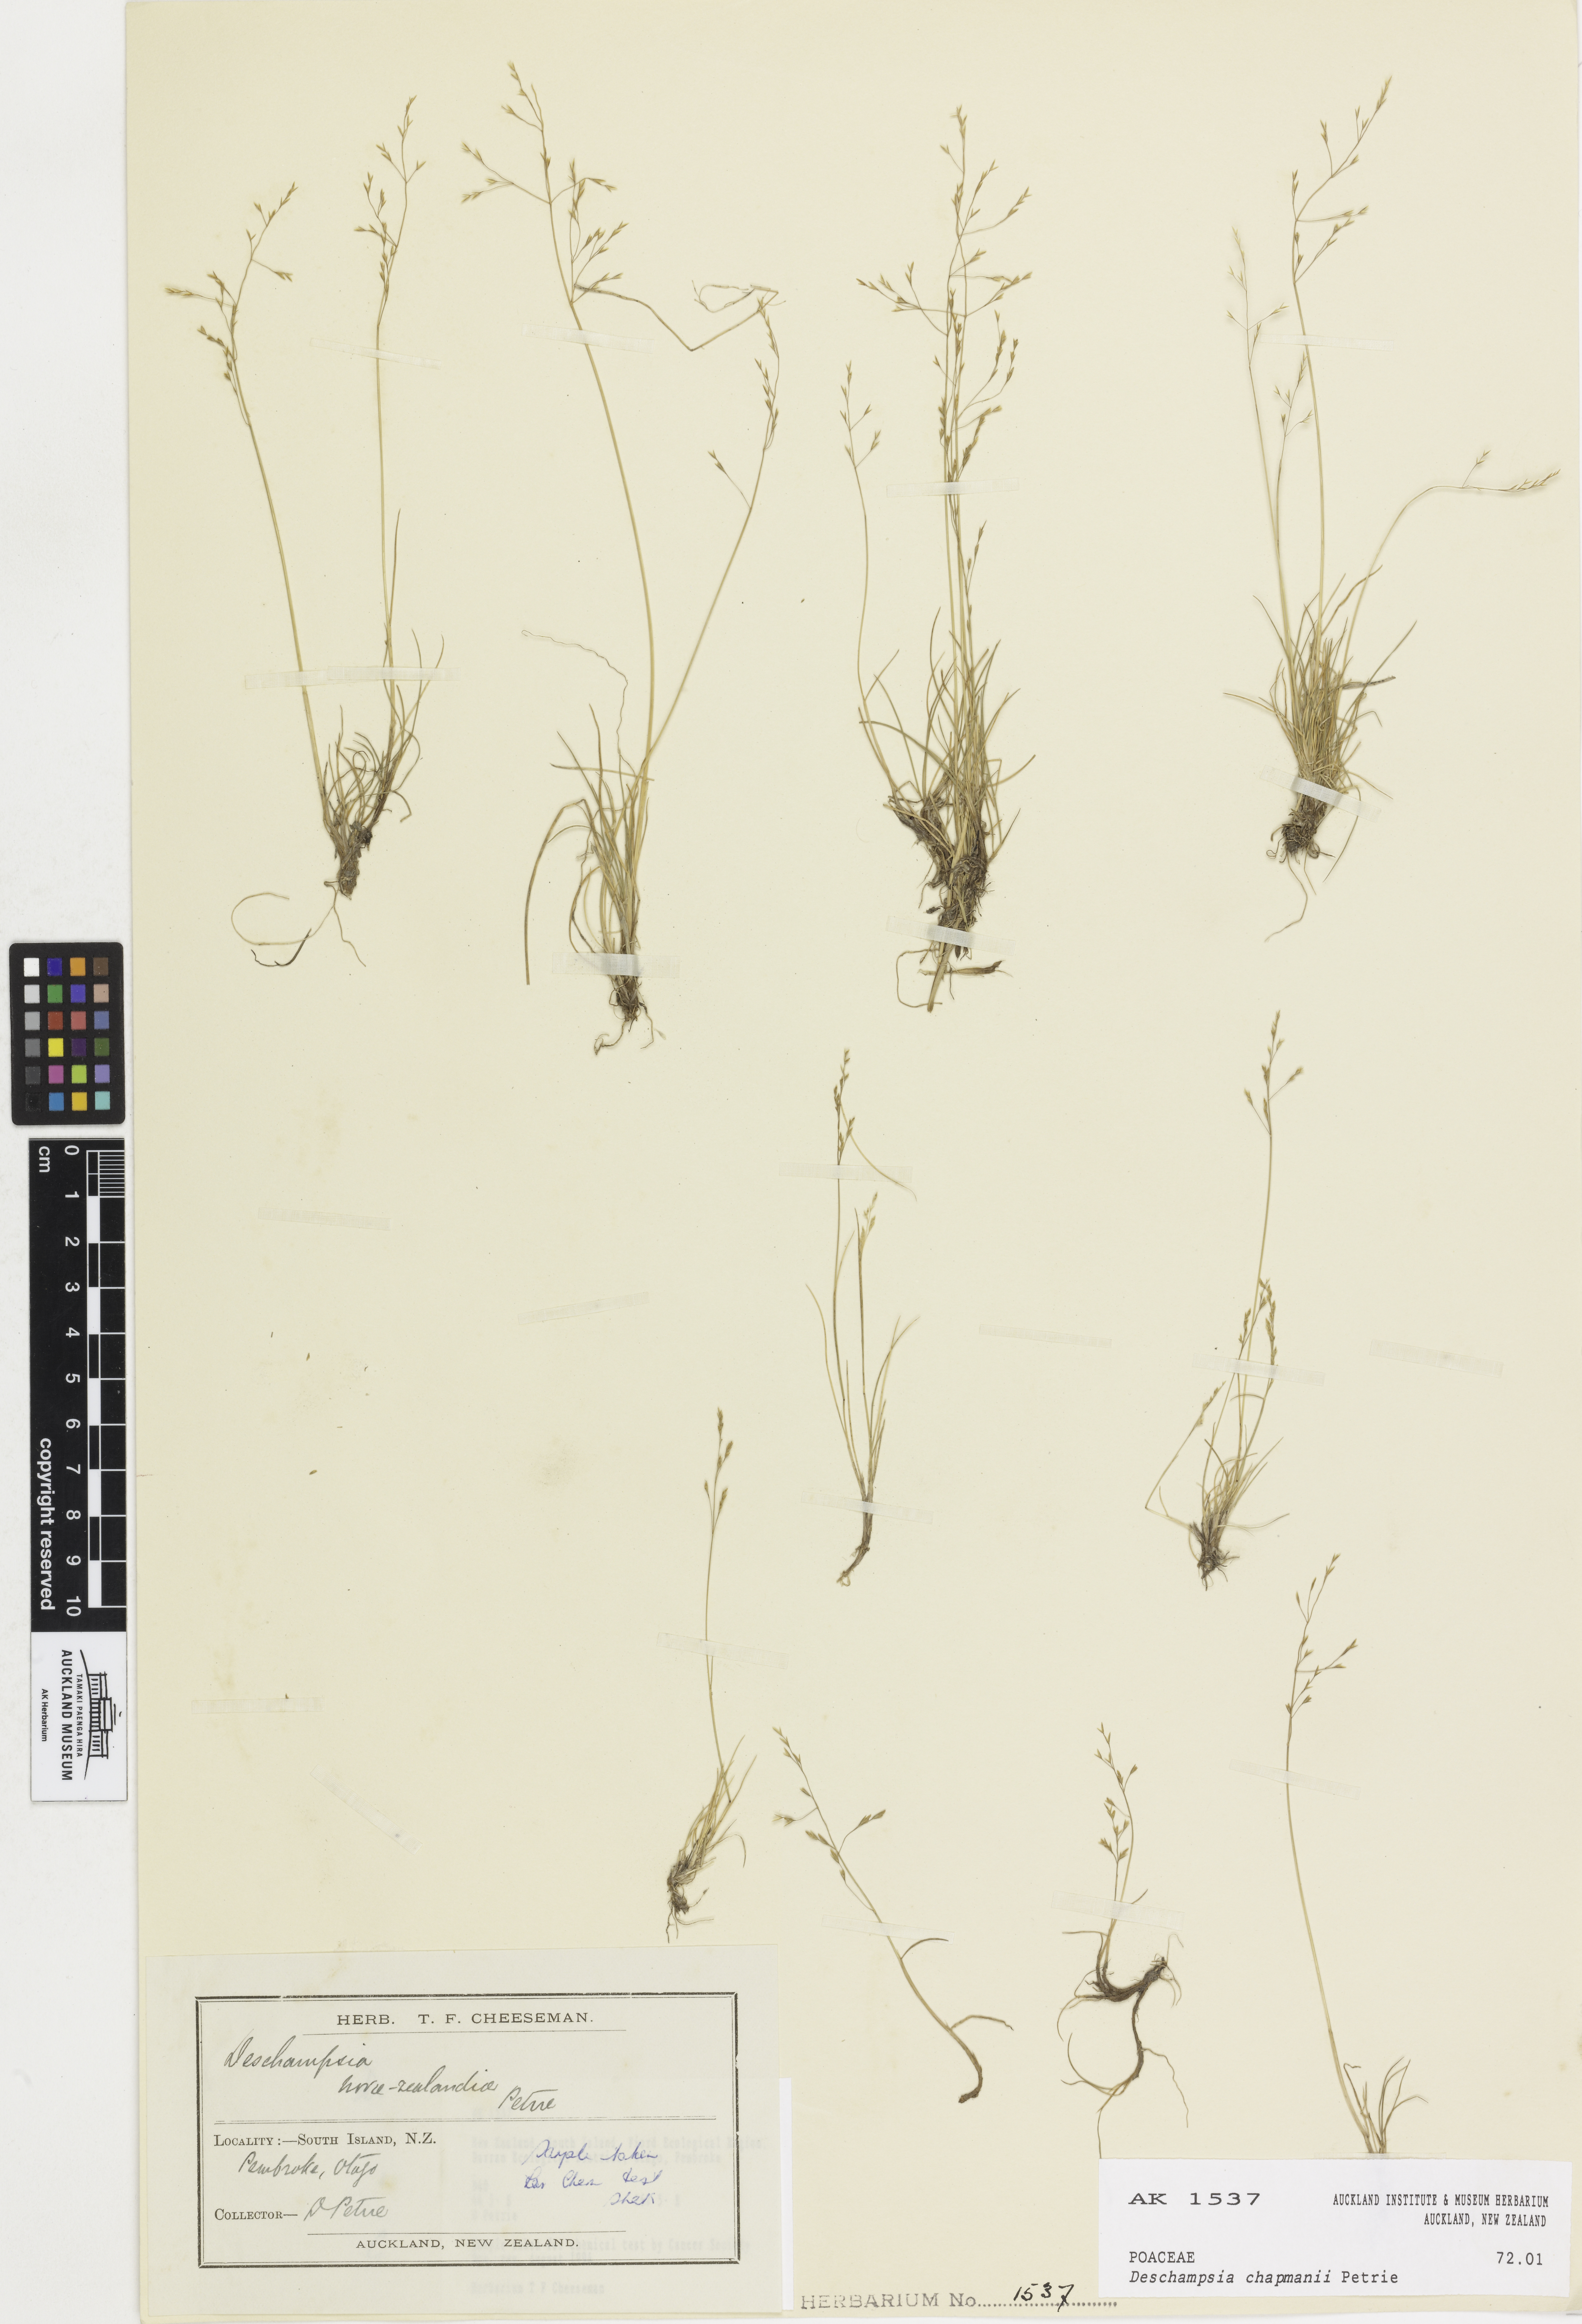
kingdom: Plantae
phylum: Tracheophyta
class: Liliopsida
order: Poales
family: Poaceae
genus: Deschampsia
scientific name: Deschampsia chapmanii
